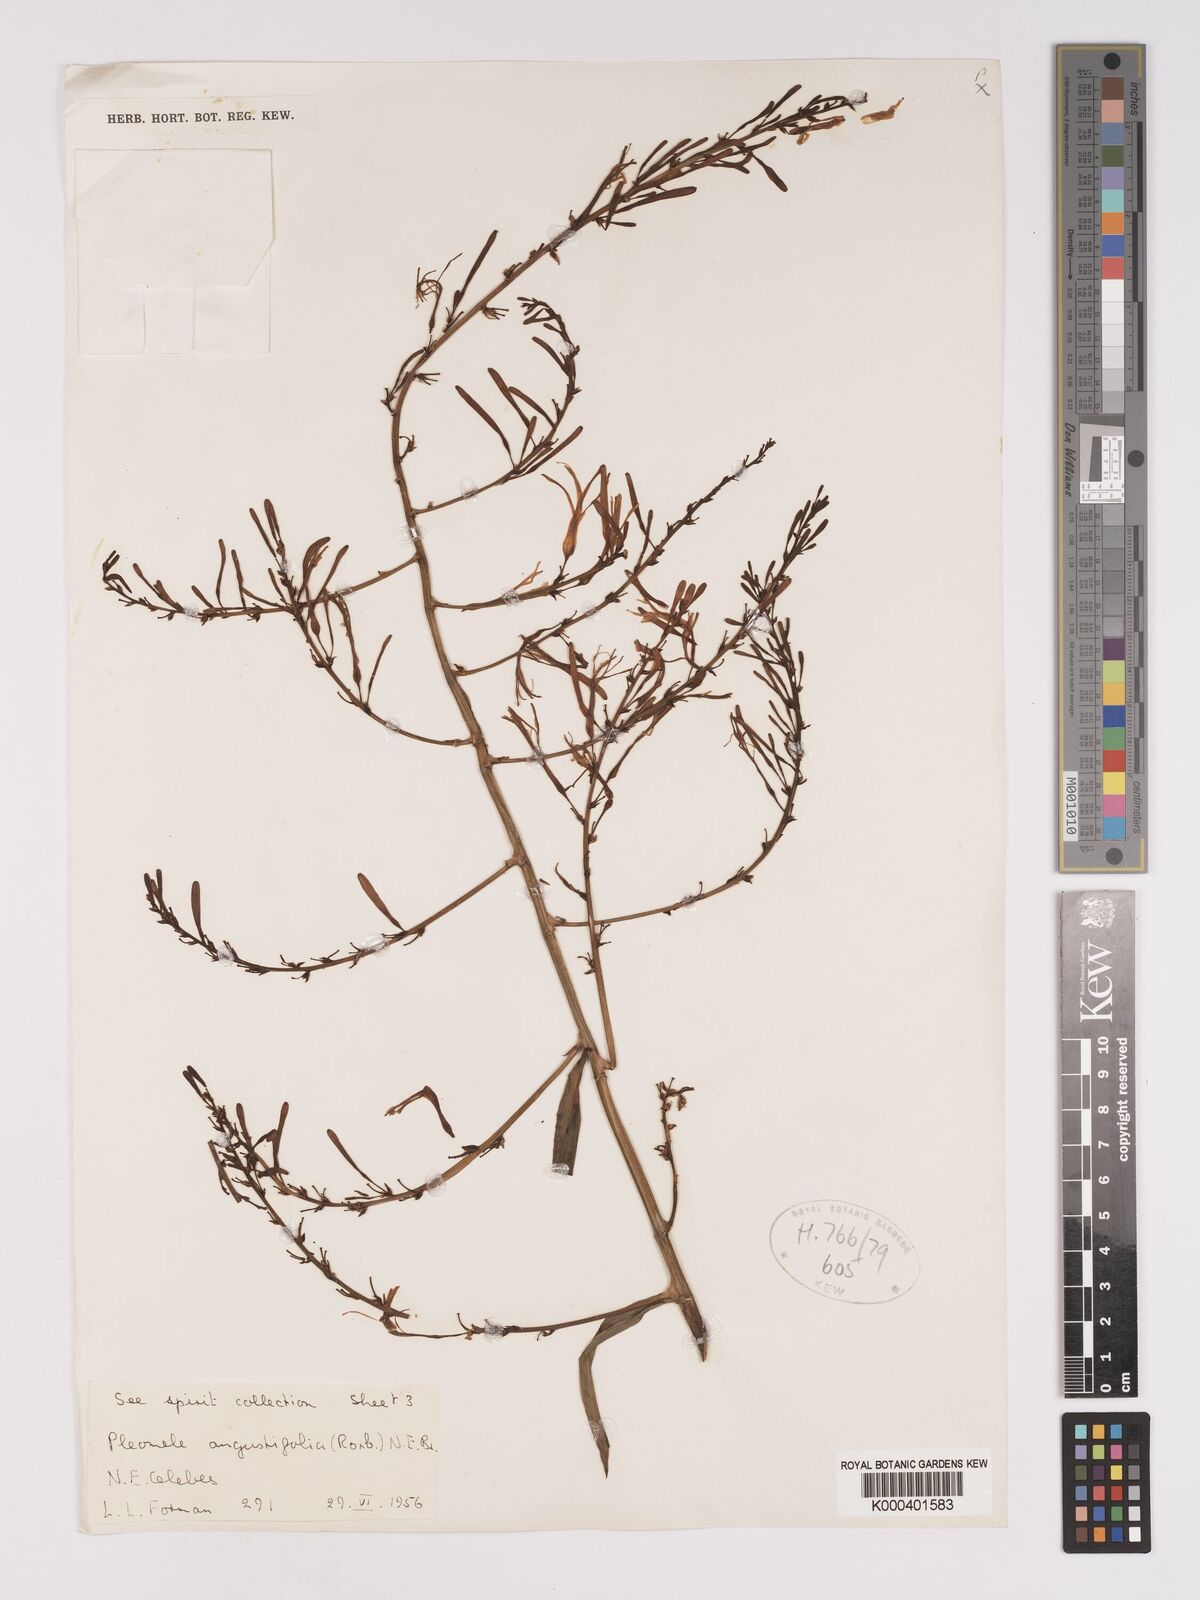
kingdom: Plantae
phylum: Tracheophyta
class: Liliopsida
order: Asparagales
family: Asparagaceae
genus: Dracaena
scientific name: Dracaena angustifolia
